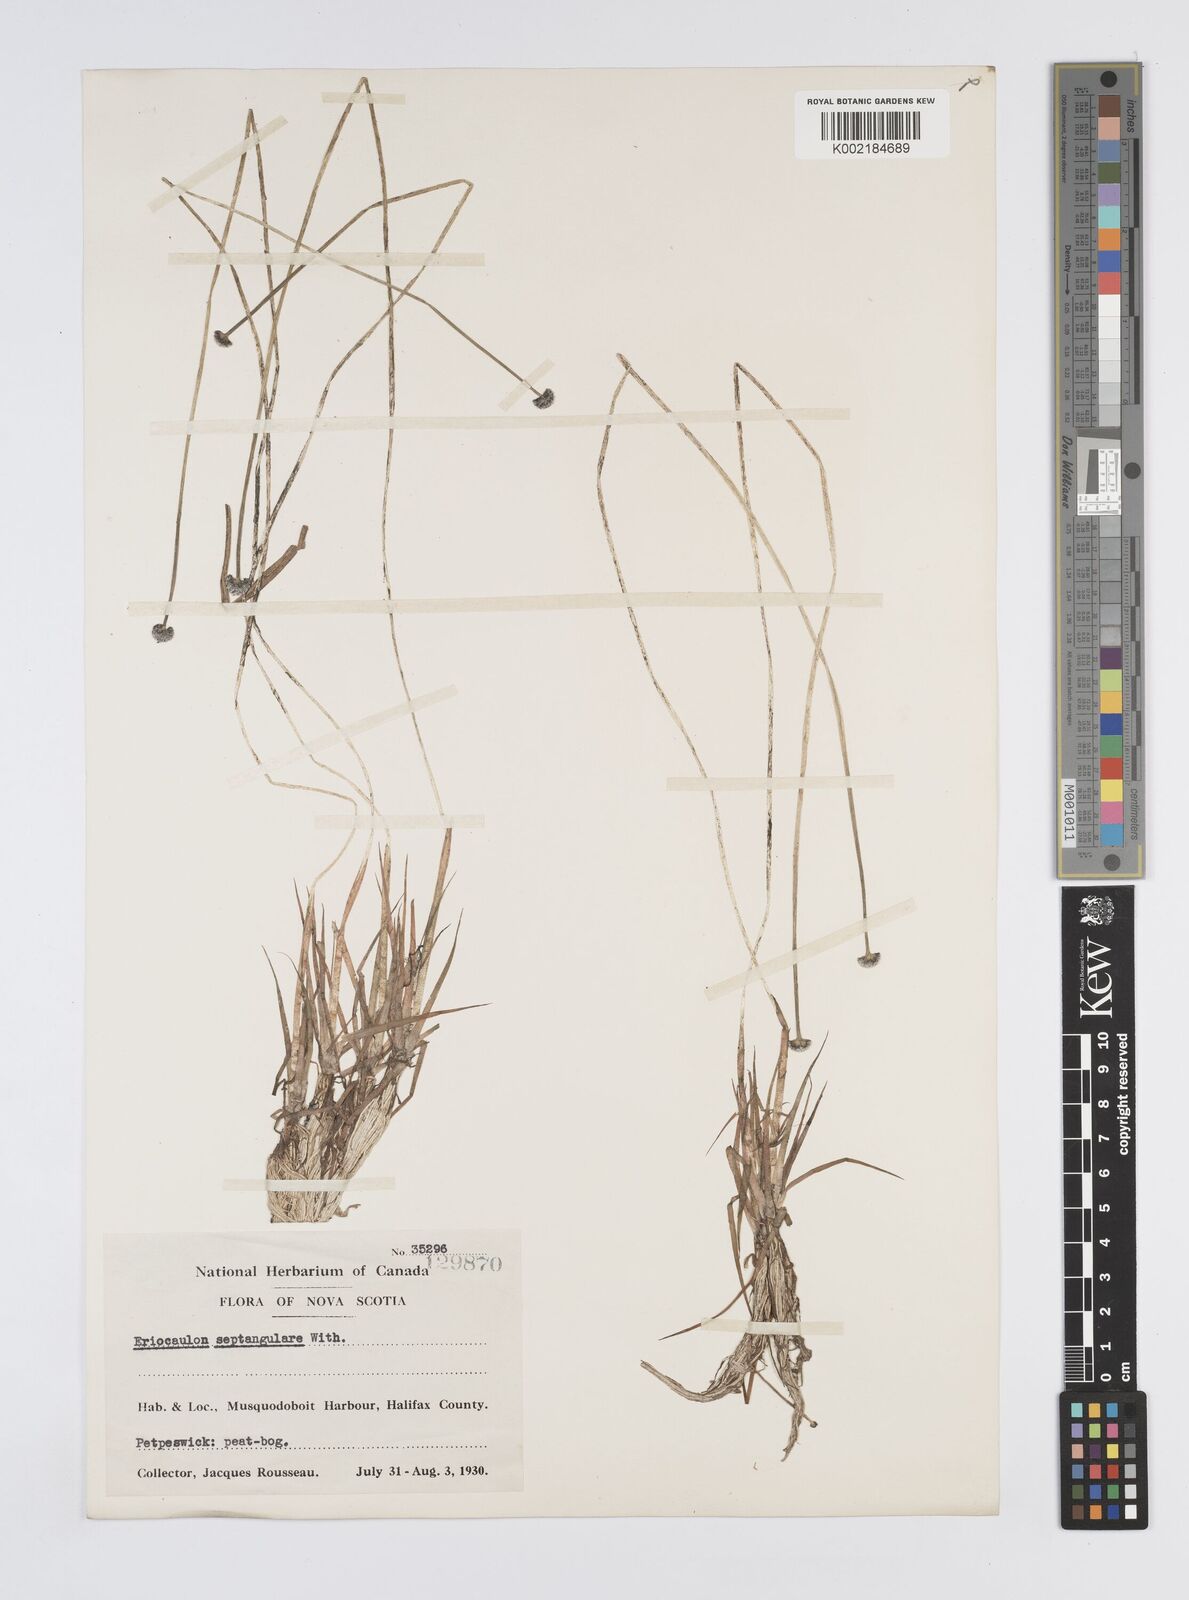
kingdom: Plantae
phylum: Tracheophyta
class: Liliopsida
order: Poales
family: Eriocaulaceae
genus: Eriocaulon
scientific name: Eriocaulon aquaticum
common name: Pipewort
